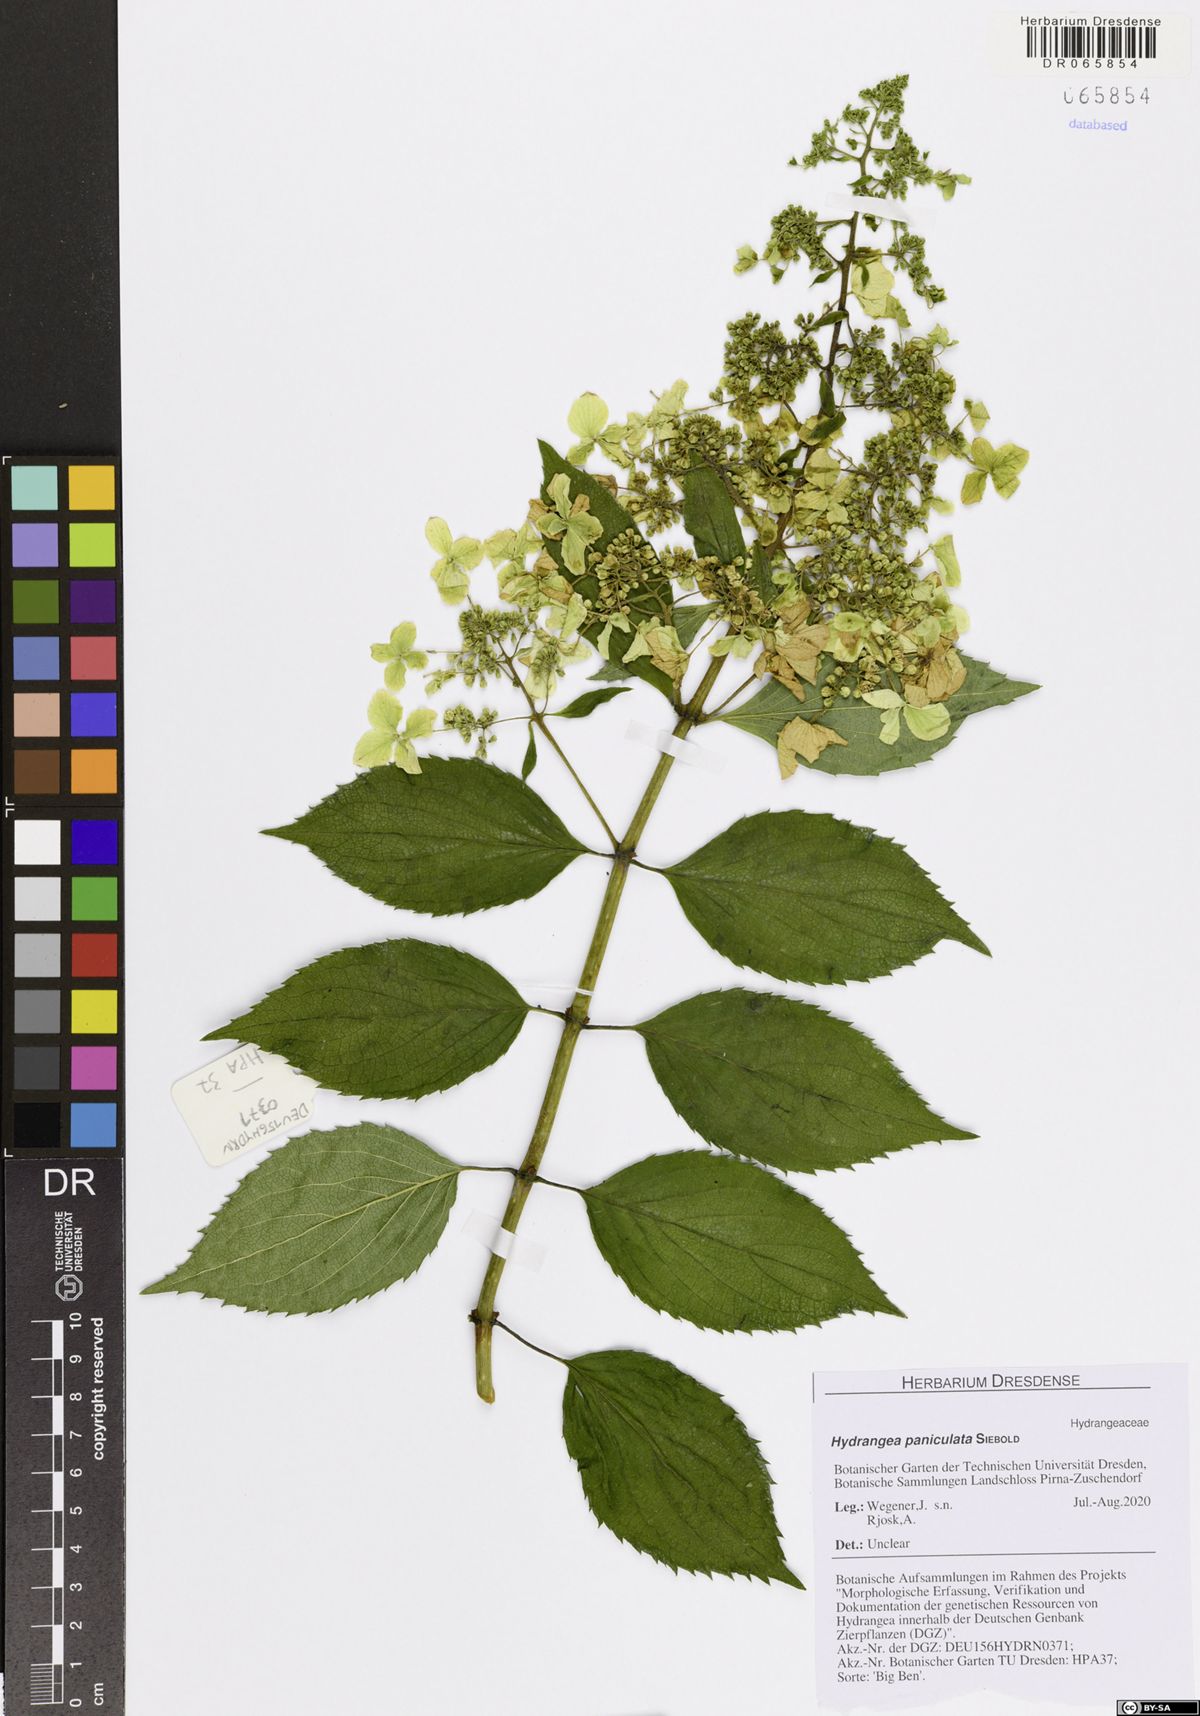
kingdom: Plantae
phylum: Tracheophyta
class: Magnoliopsida
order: Cornales
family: Hydrangeaceae
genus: Hydrangea
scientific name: Hydrangea paniculata
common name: Panicled hydrangea
